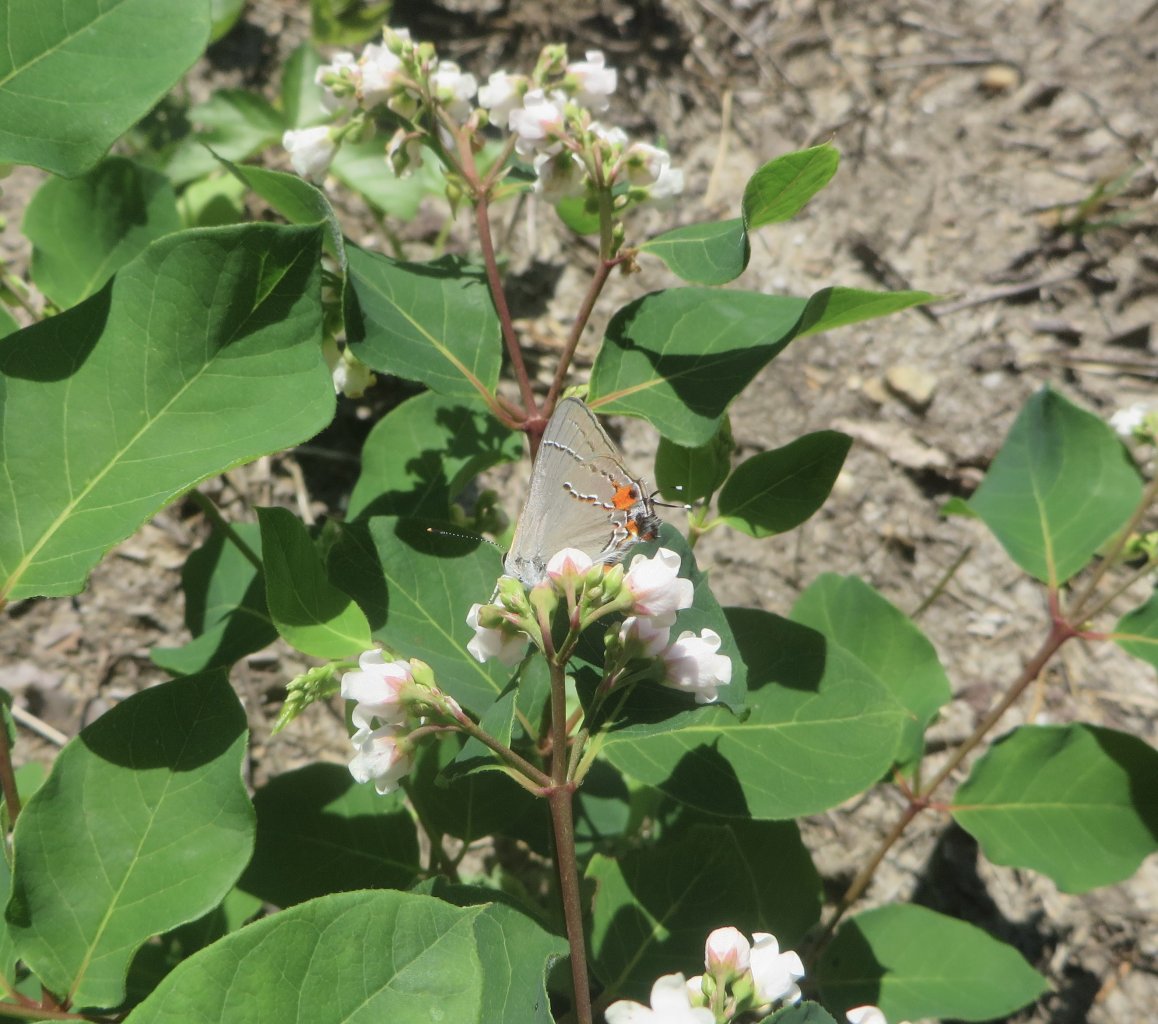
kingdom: Animalia
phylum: Arthropoda
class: Insecta
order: Lepidoptera
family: Lycaenidae
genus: Strymon
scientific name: Strymon melinus
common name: Gray Hairstreak
